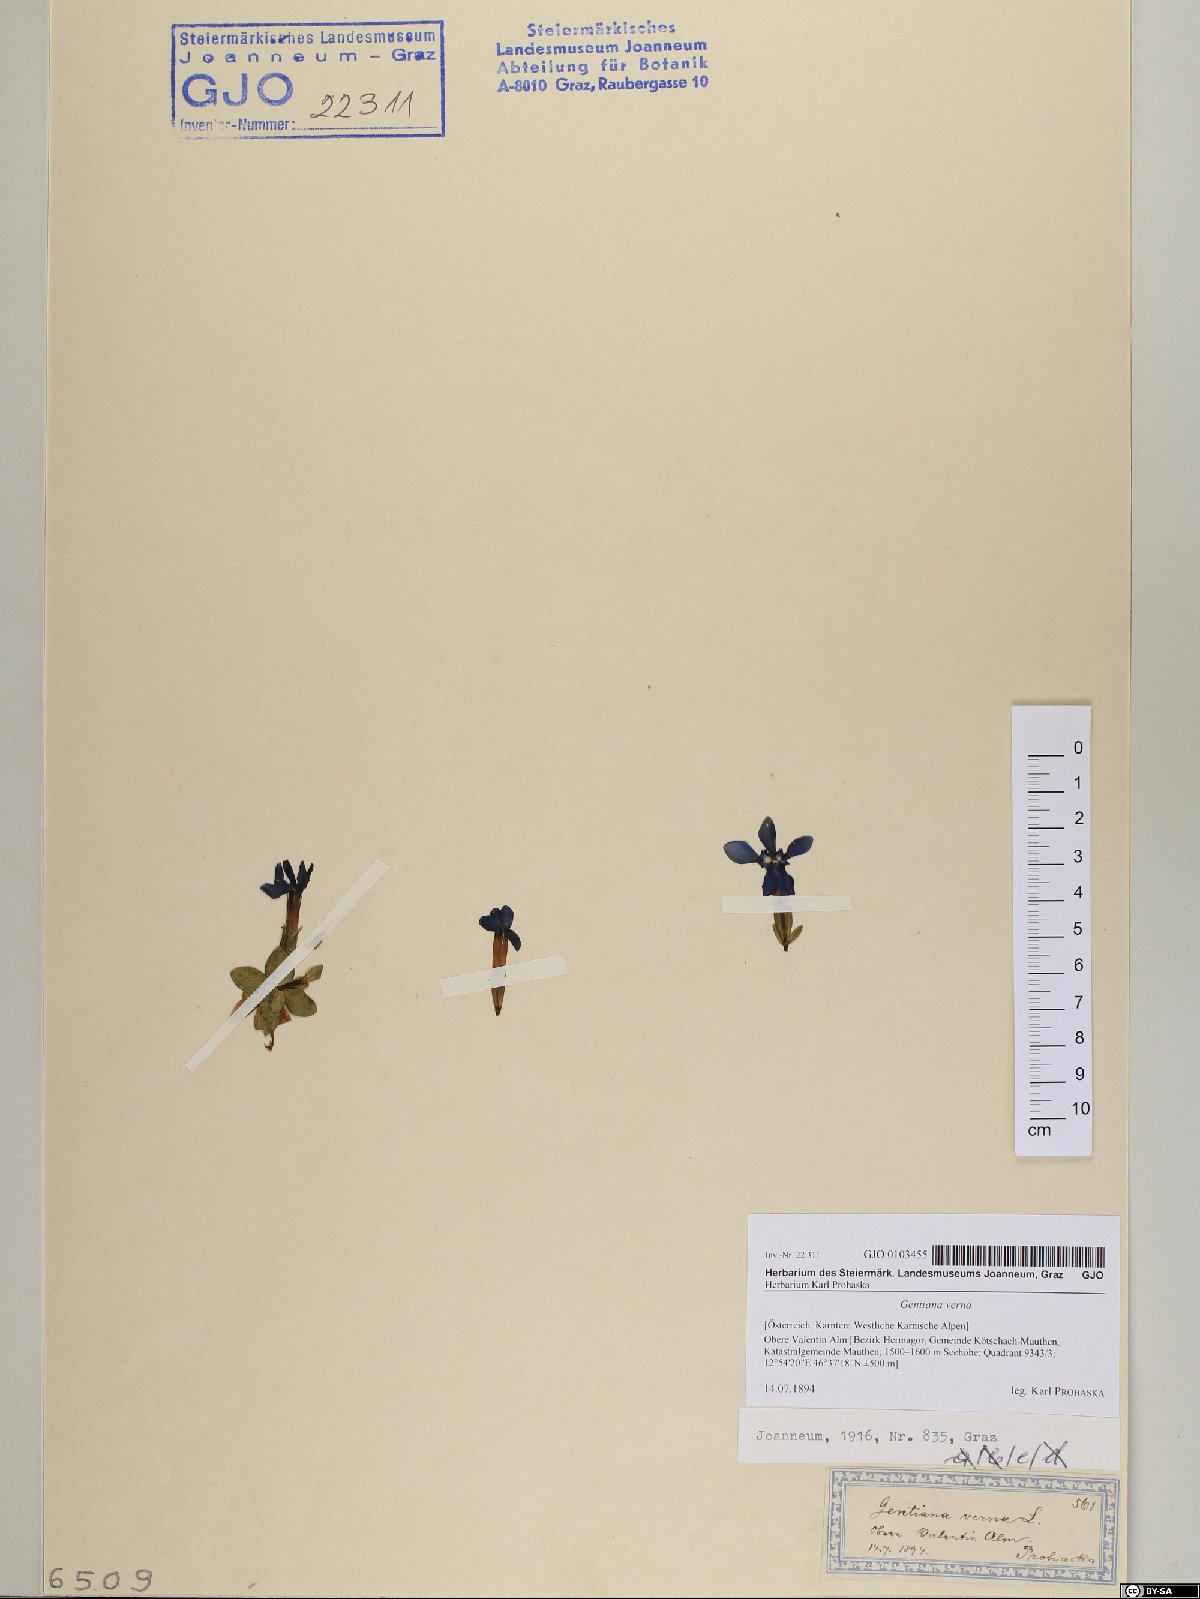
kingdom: Plantae
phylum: Tracheophyta
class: Magnoliopsida
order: Gentianales
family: Gentianaceae
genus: Gentiana
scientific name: Gentiana verna
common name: Spring gentian
